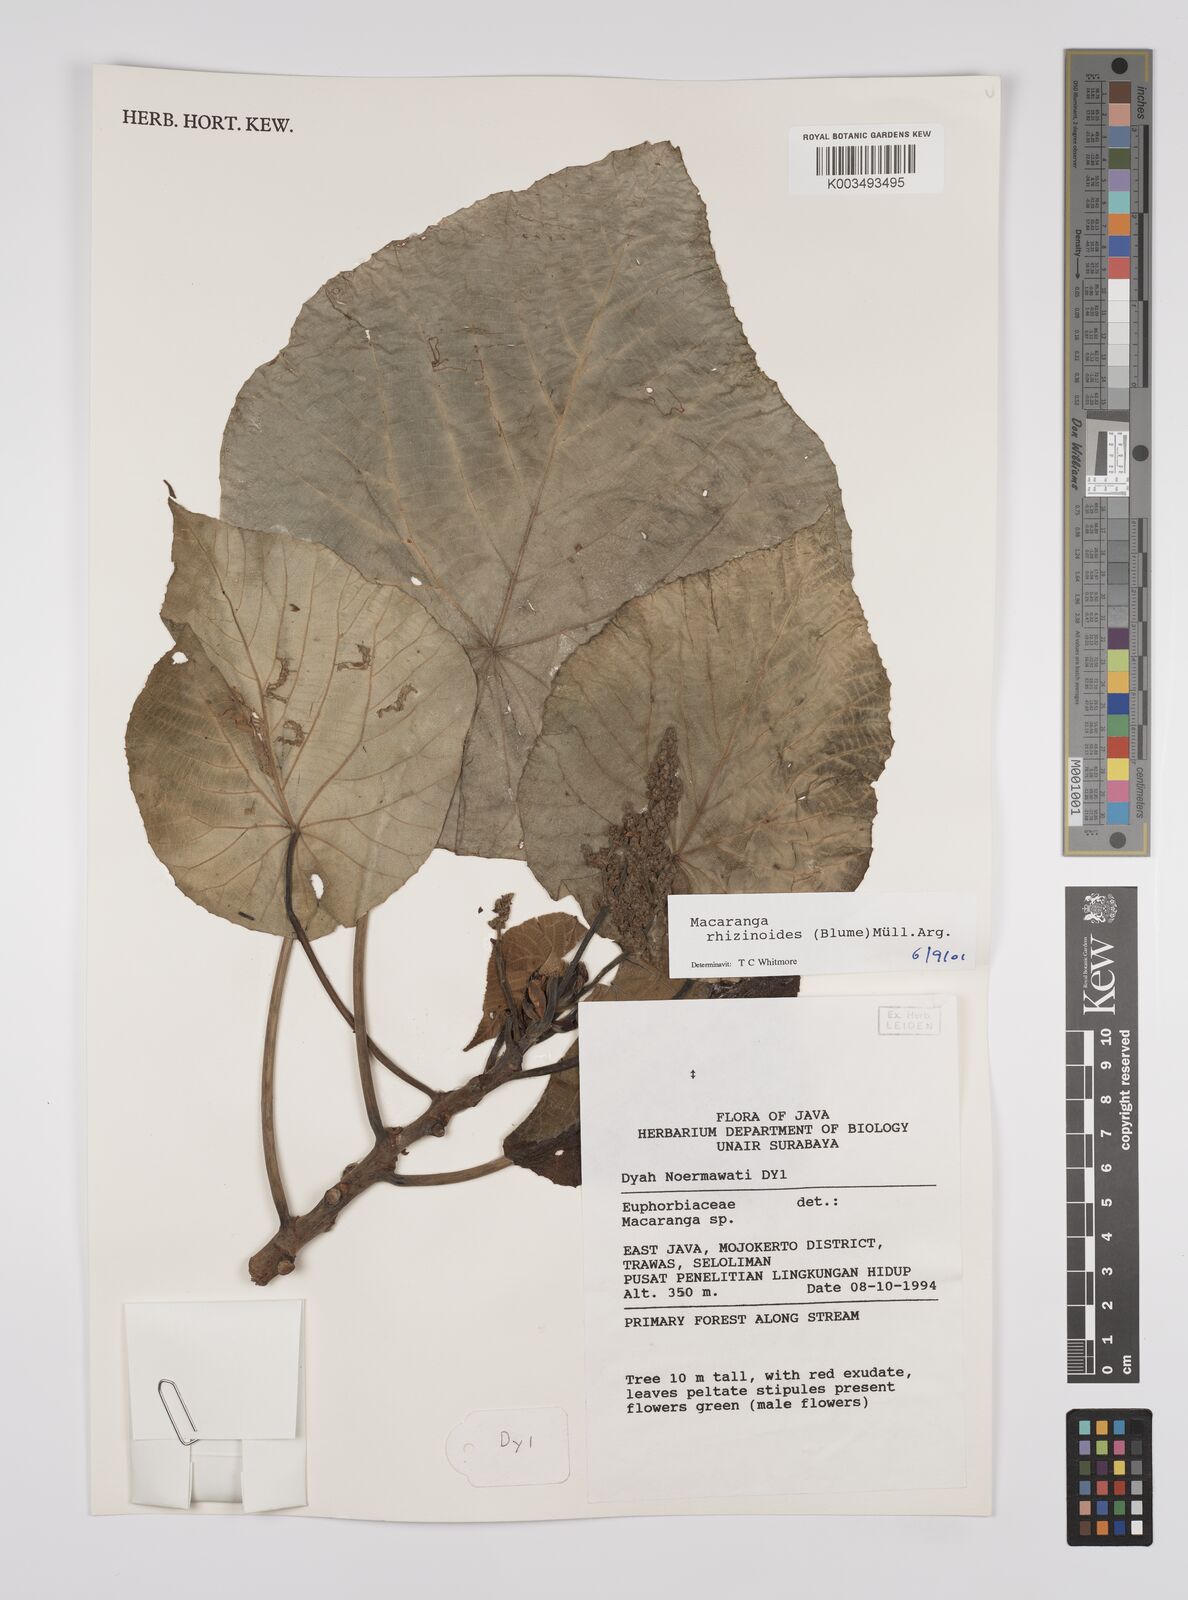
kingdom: Plantae
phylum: Tracheophyta
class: Magnoliopsida
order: Malpighiales
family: Euphorbiaceae
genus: Macaranga
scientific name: Macaranga rhizinoides
